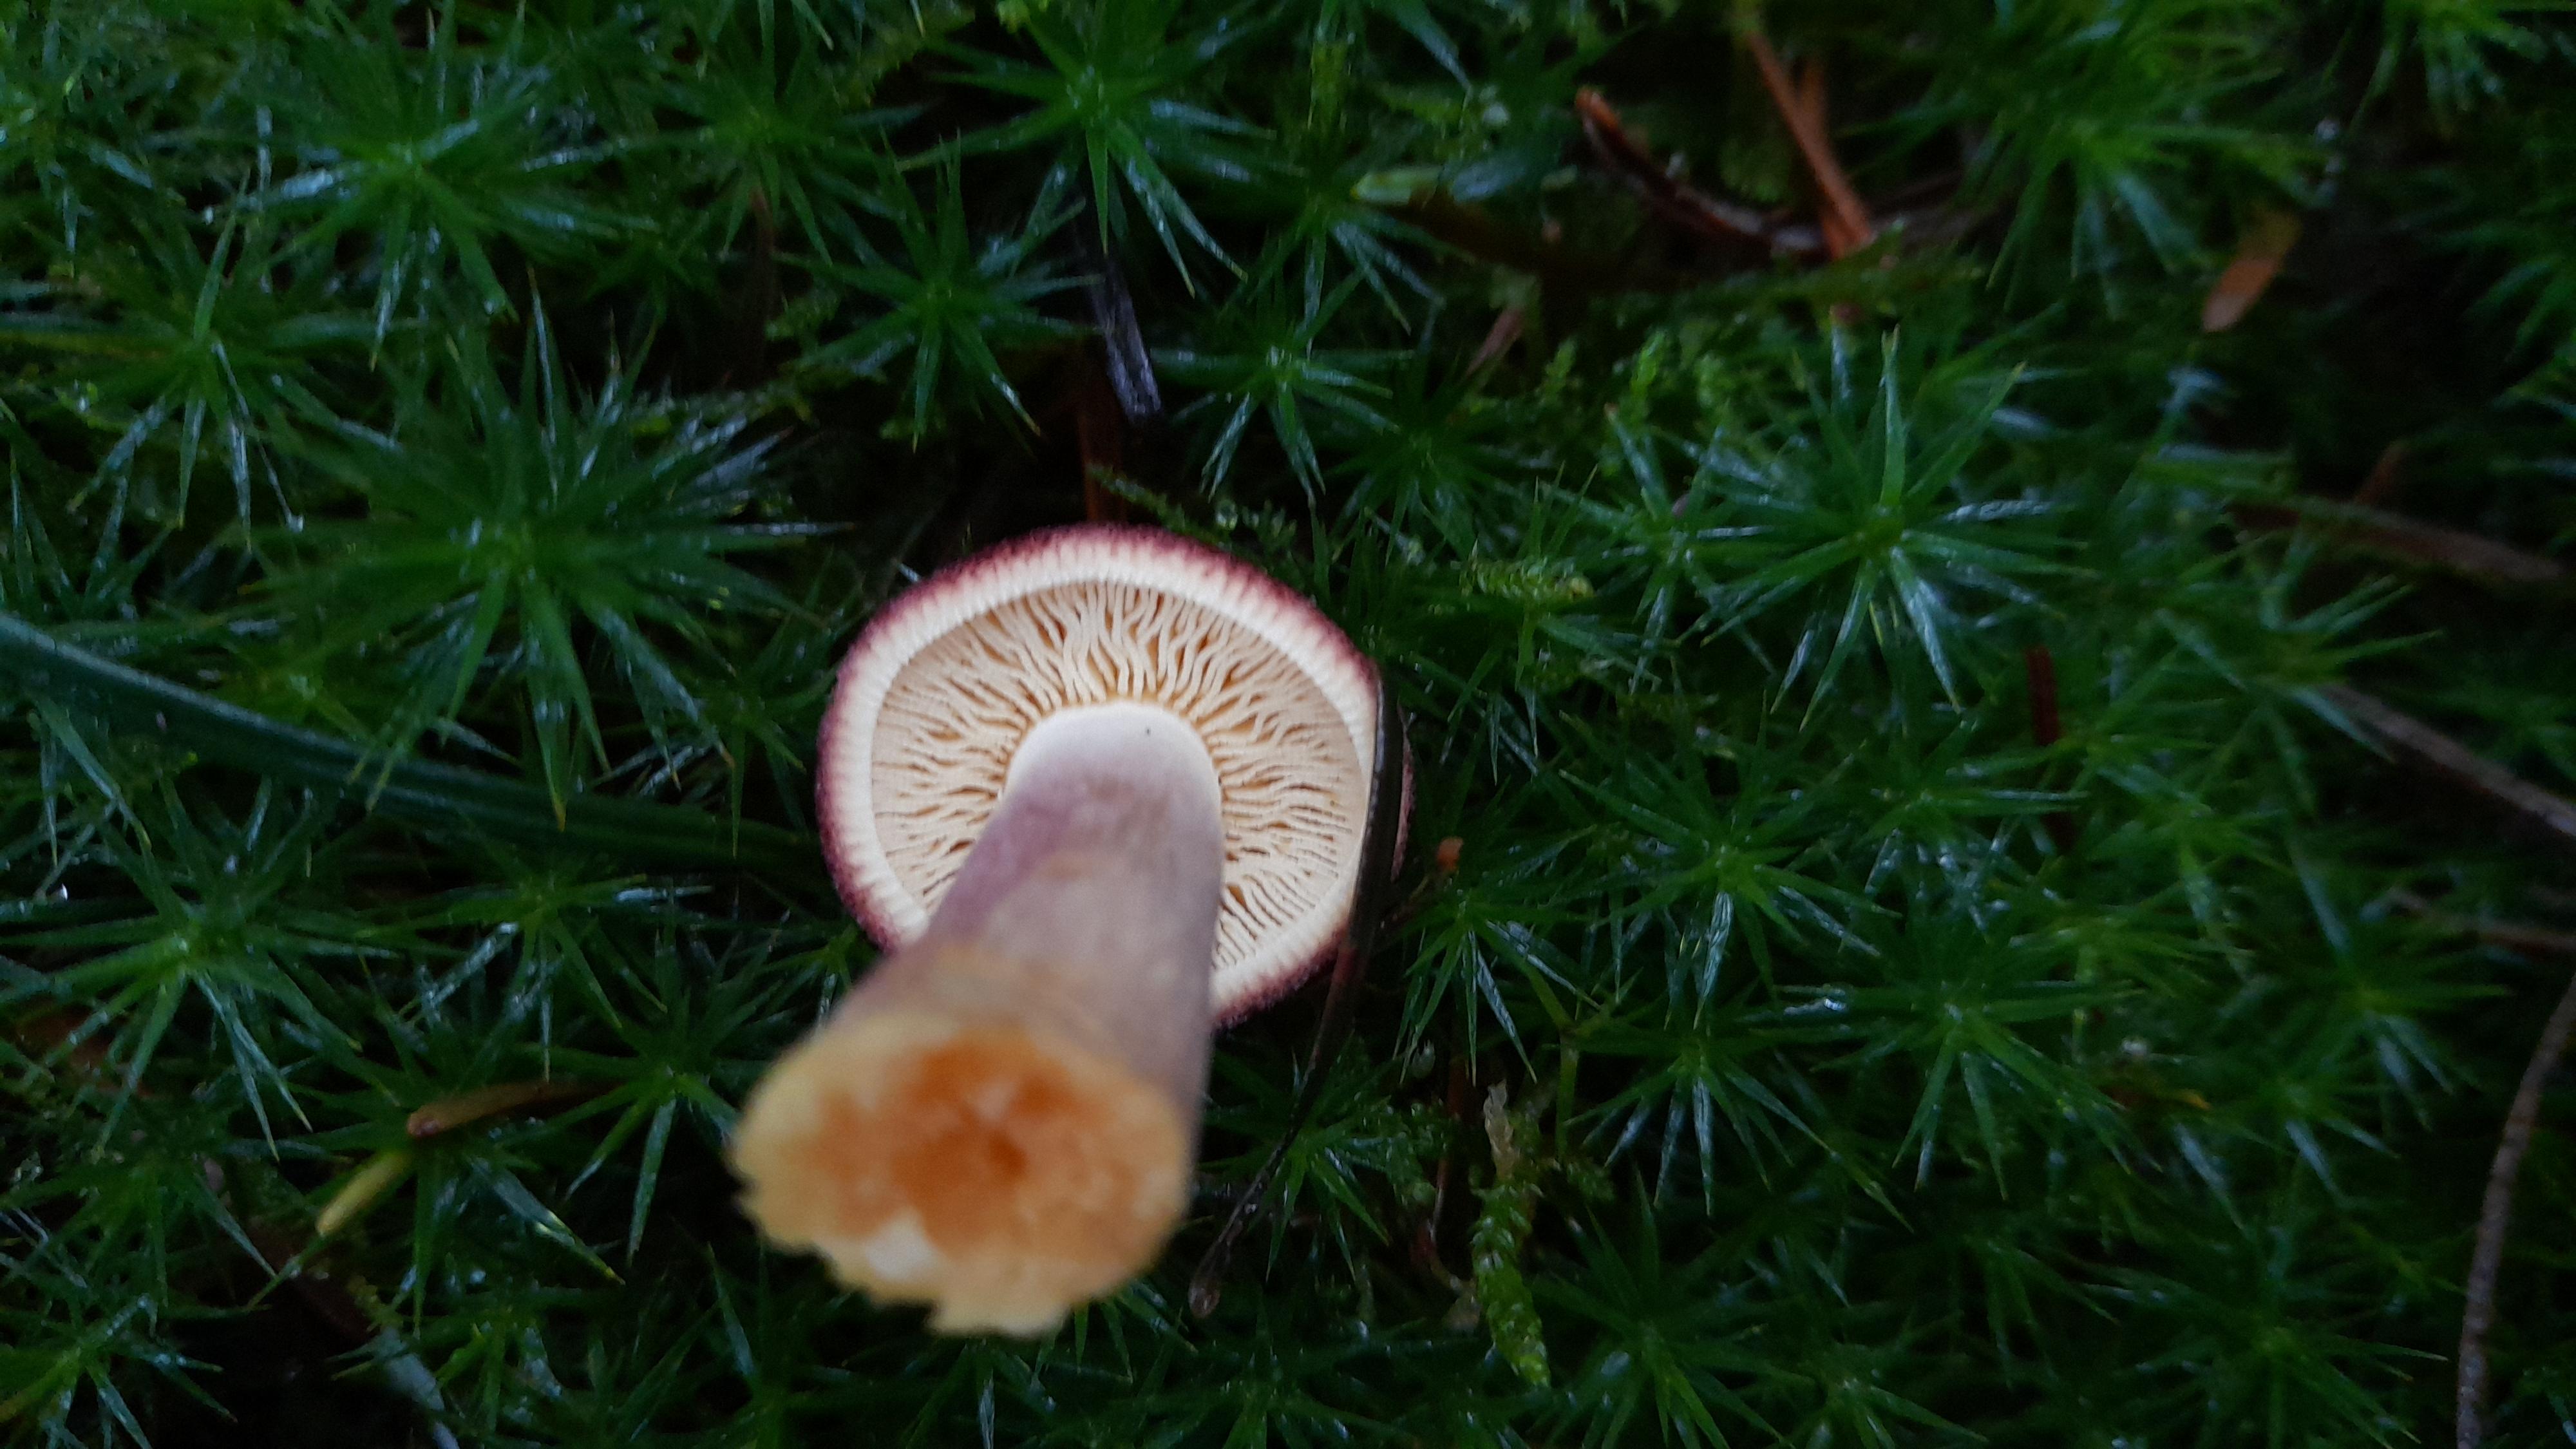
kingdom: Fungi
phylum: Basidiomycota
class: Agaricomycetes
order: Agaricales
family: Tricholomataceae
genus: Tricholomopsis
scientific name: Tricholomopsis rutilans
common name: purpur-væbnerhat
